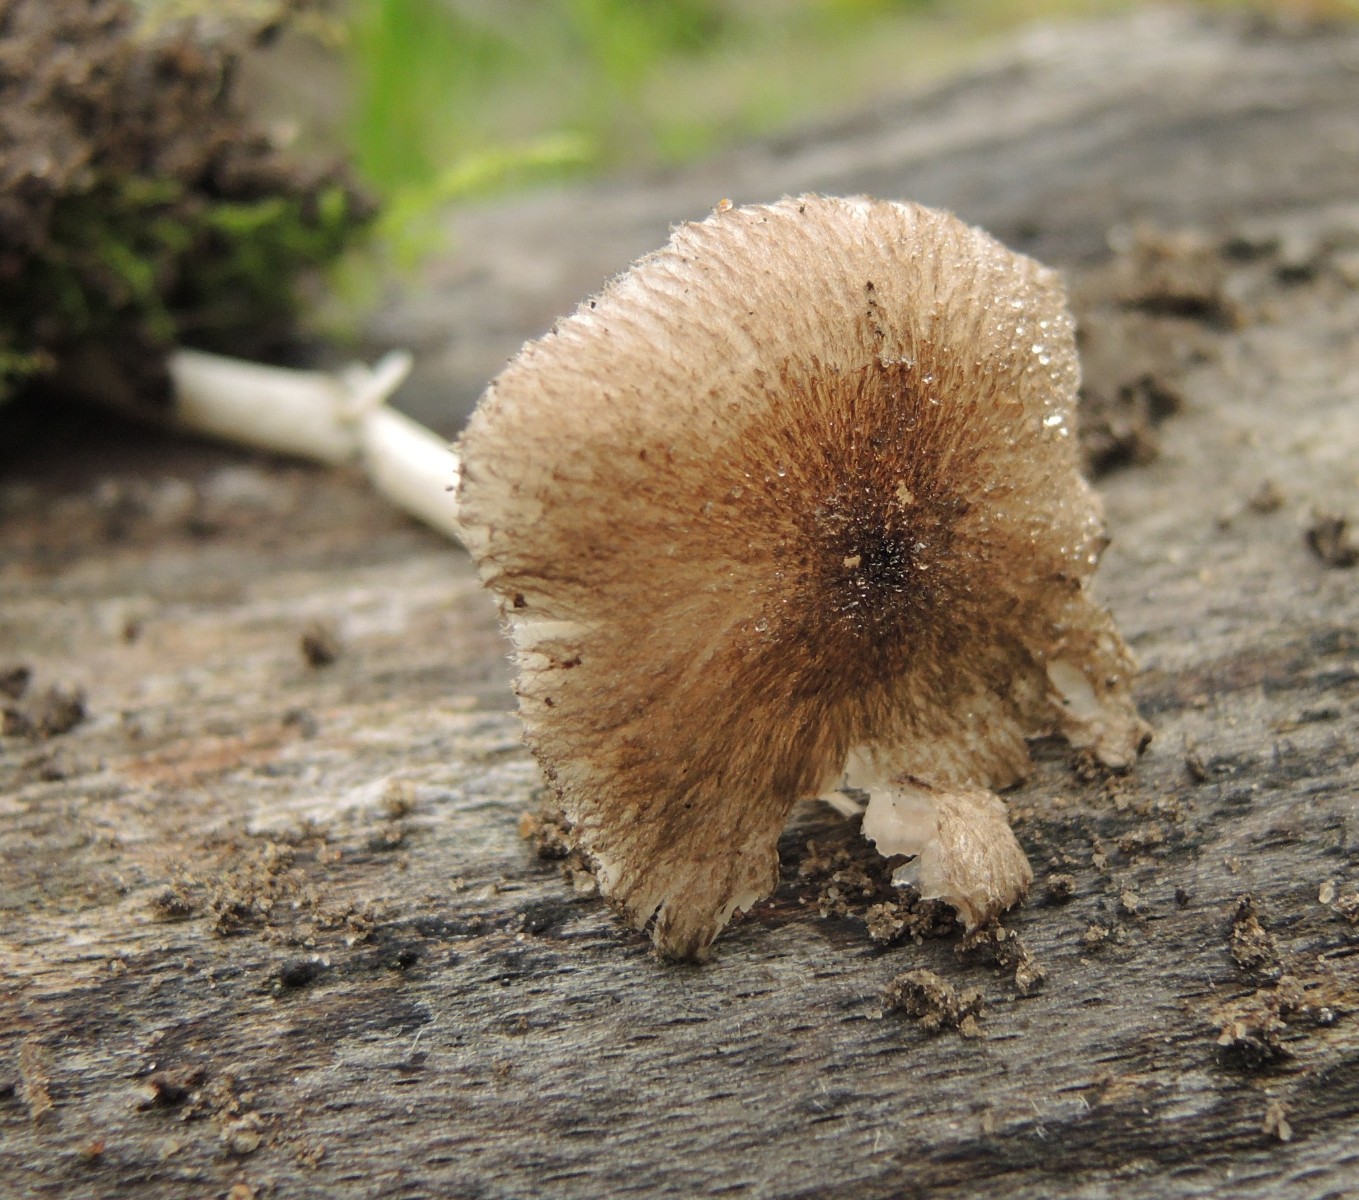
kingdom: Fungi
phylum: Basidiomycota
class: Agaricomycetes
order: Agaricales
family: Pluteaceae
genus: Pluteus
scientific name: Pluteus hispidulus
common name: Fleecy shield
